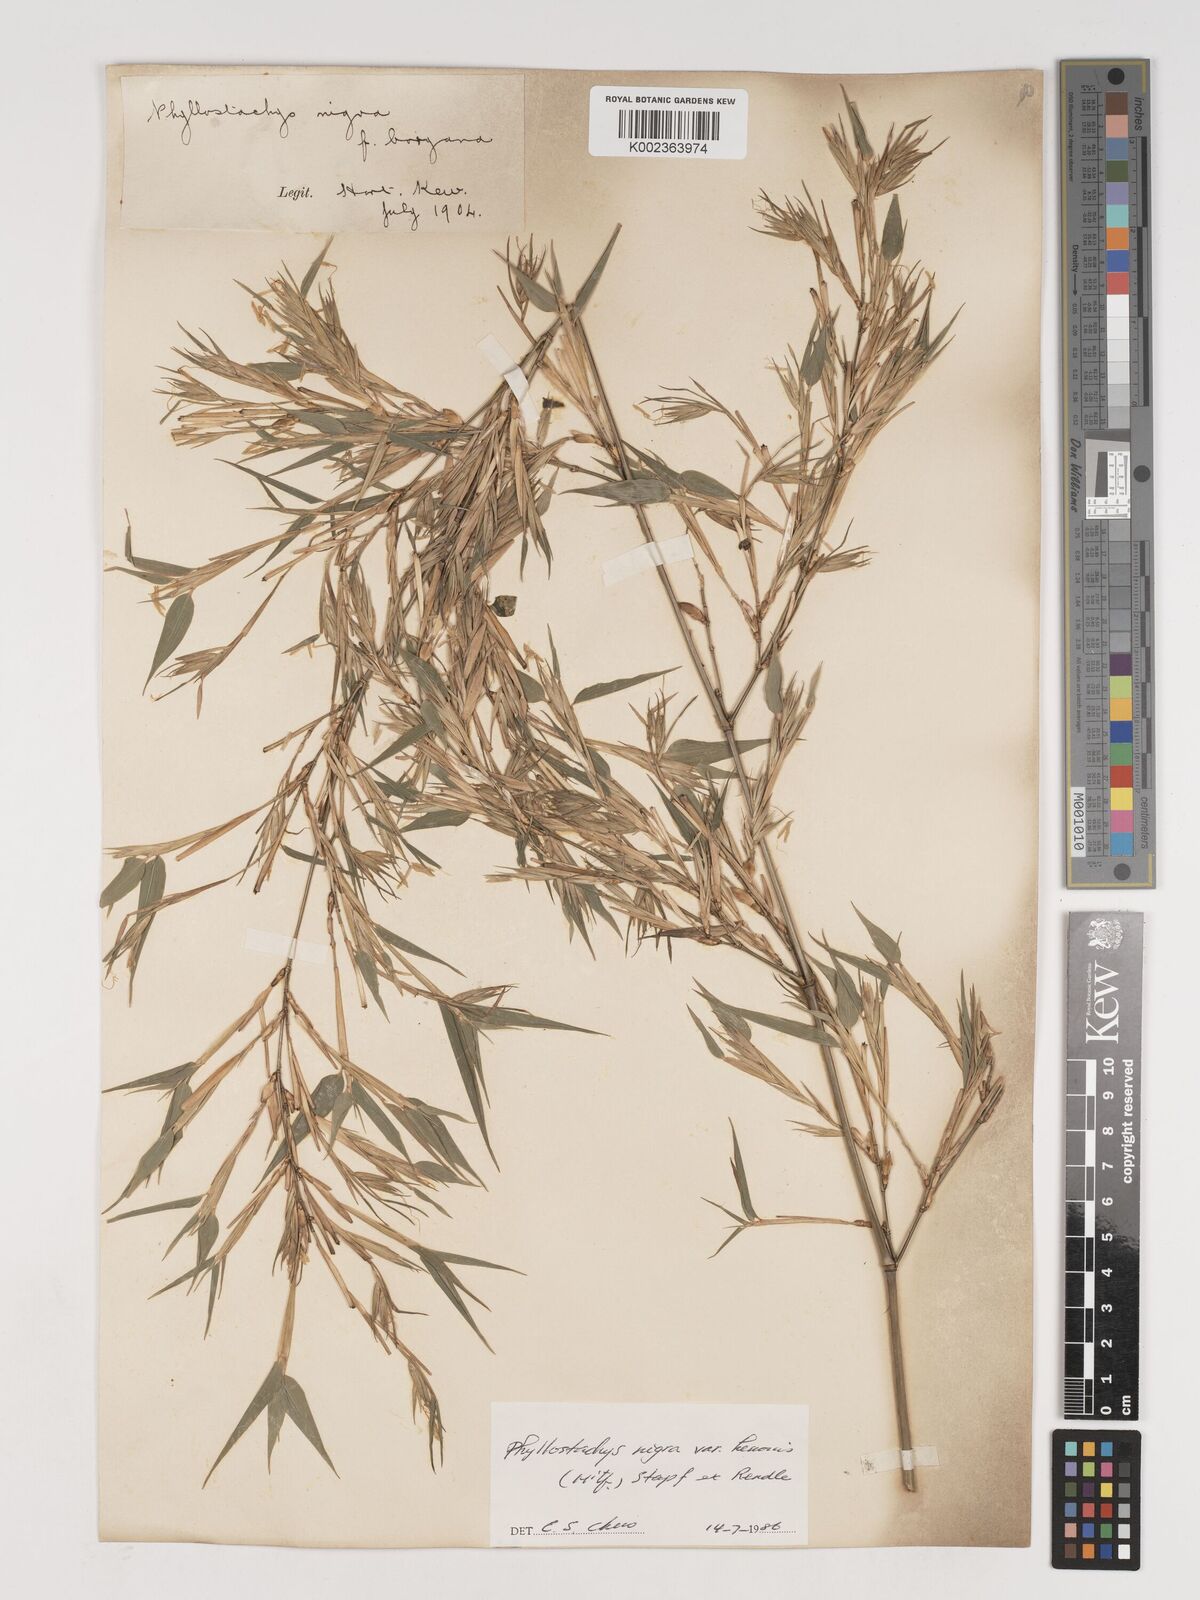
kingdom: Plantae
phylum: Tracheophyta
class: Liliopsida
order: Poales
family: Poaceae
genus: Phyllostachys
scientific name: Phyllostachys nigra
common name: Black bamboo
